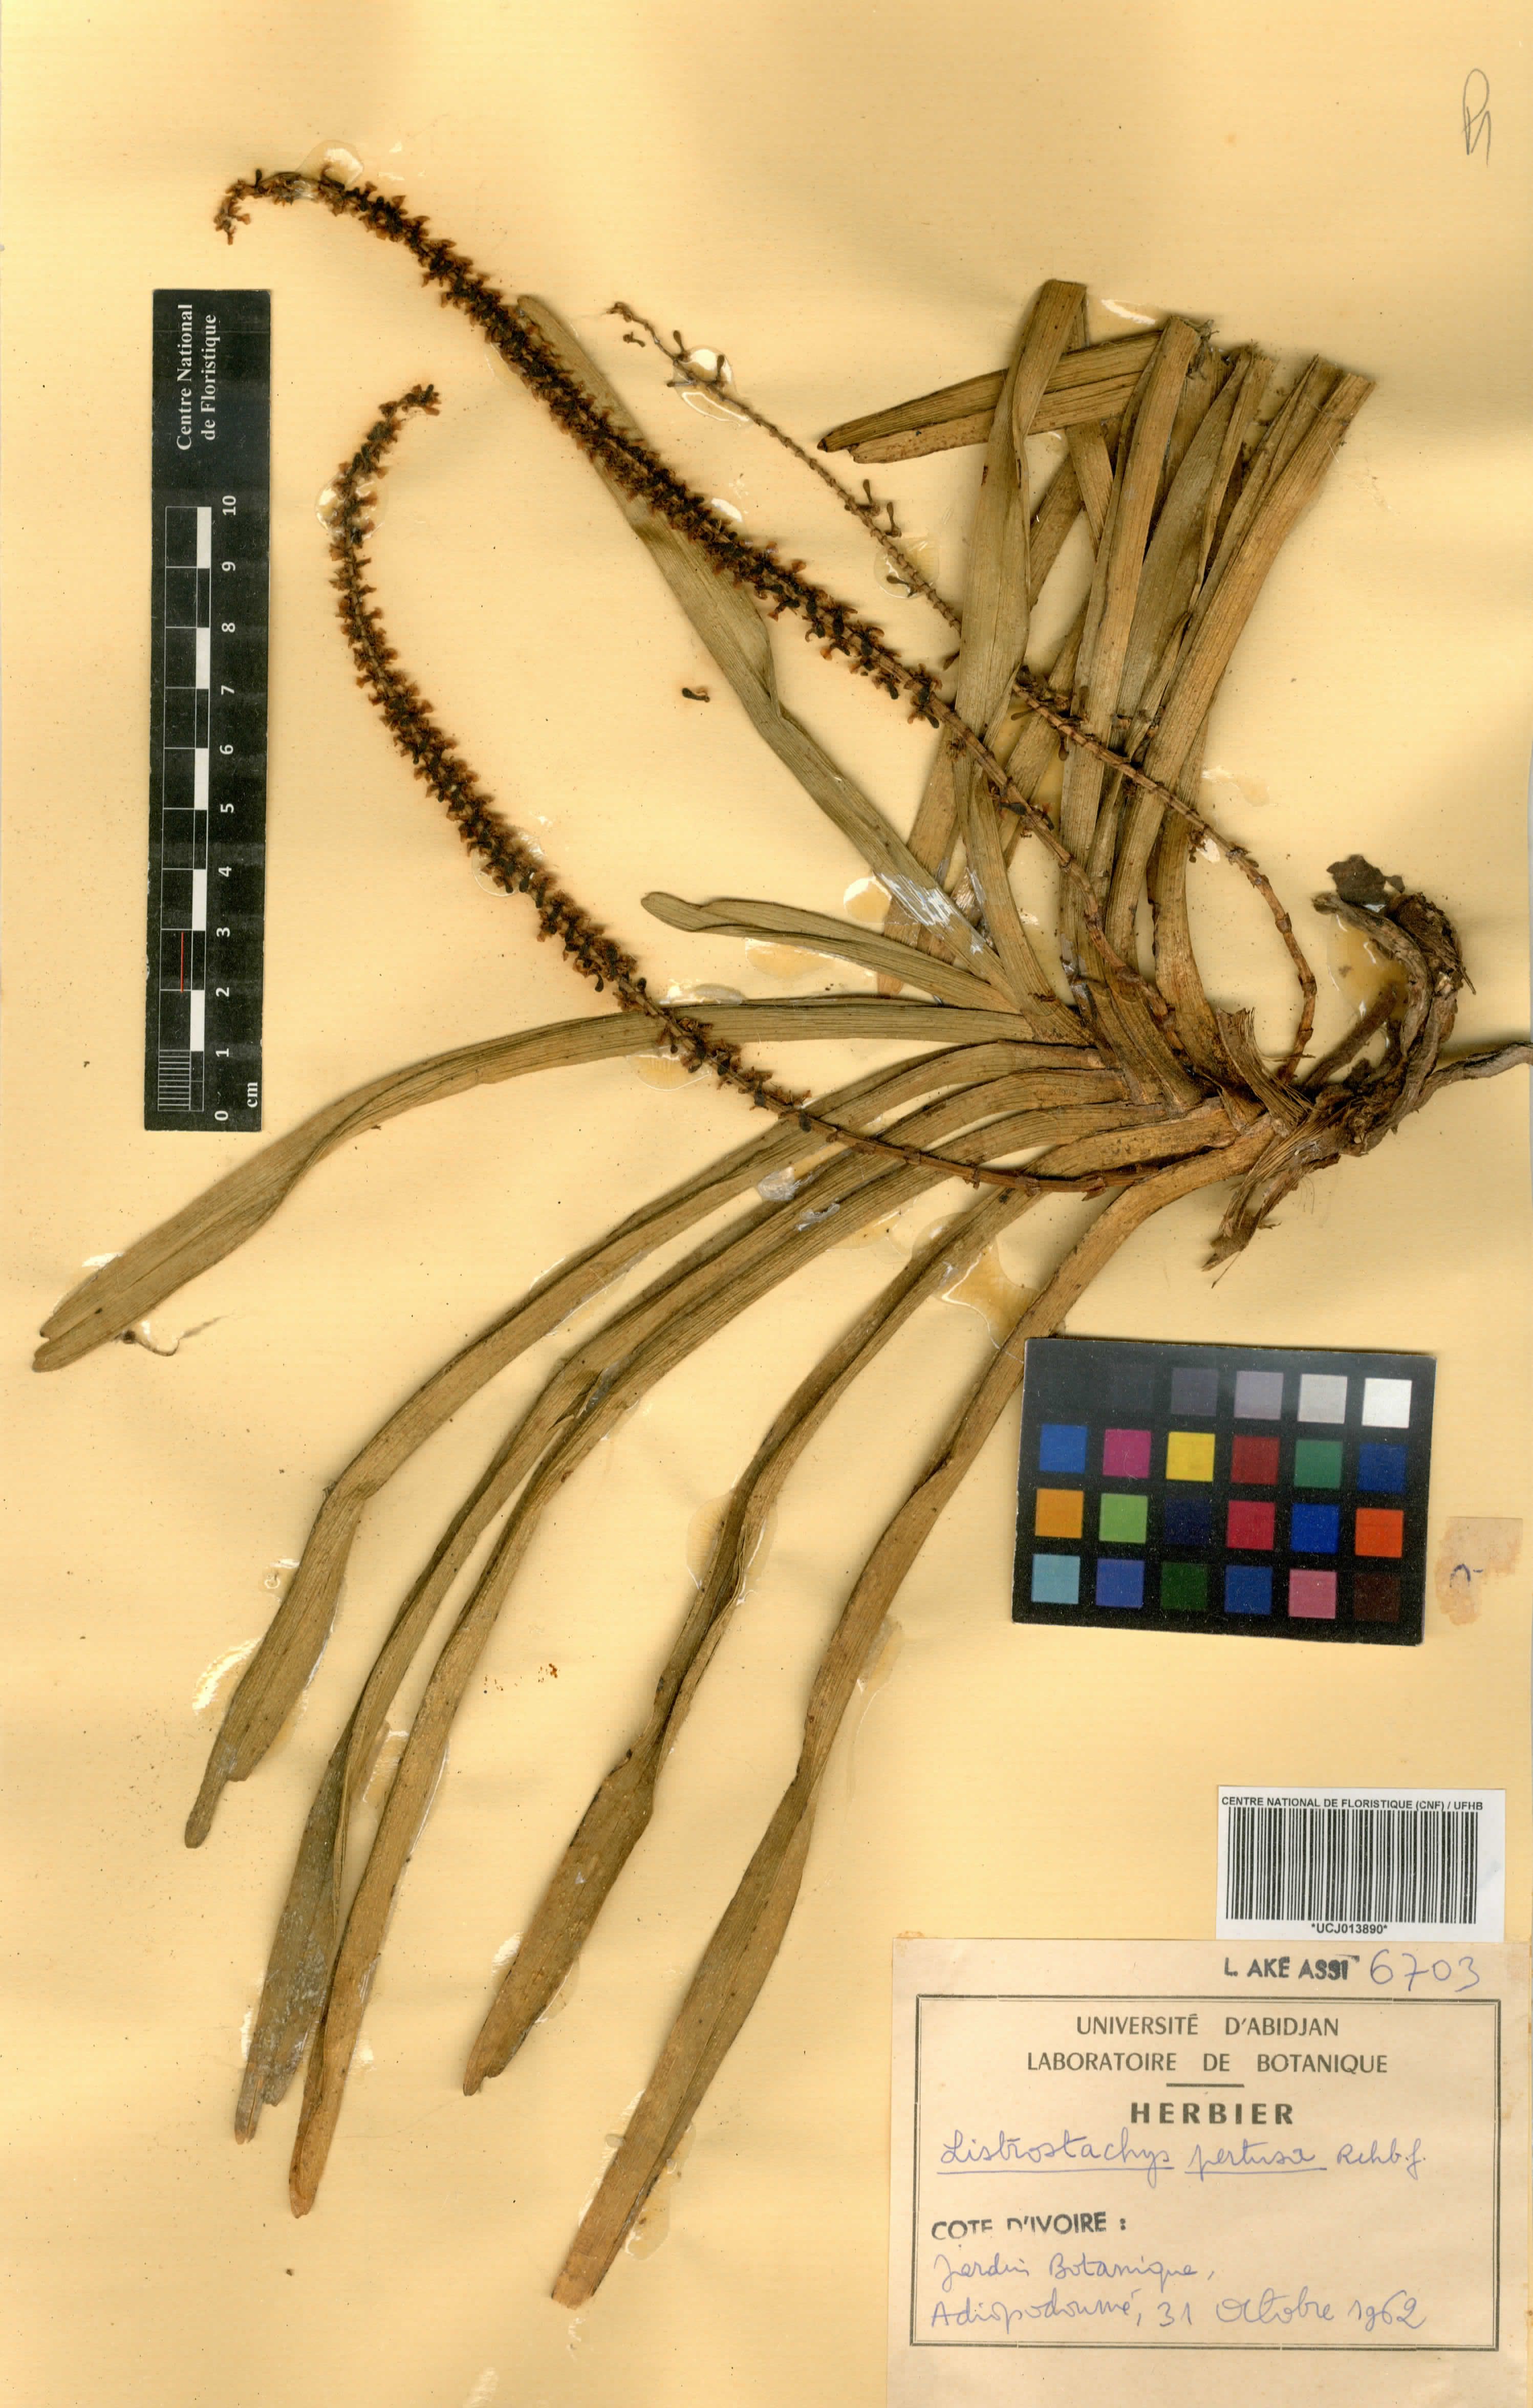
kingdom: Plantae
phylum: Tracheophyta
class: Liliopsida
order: Asparagales
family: Orchidaceae
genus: Listrostachys
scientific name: Listrostachys pertusa
